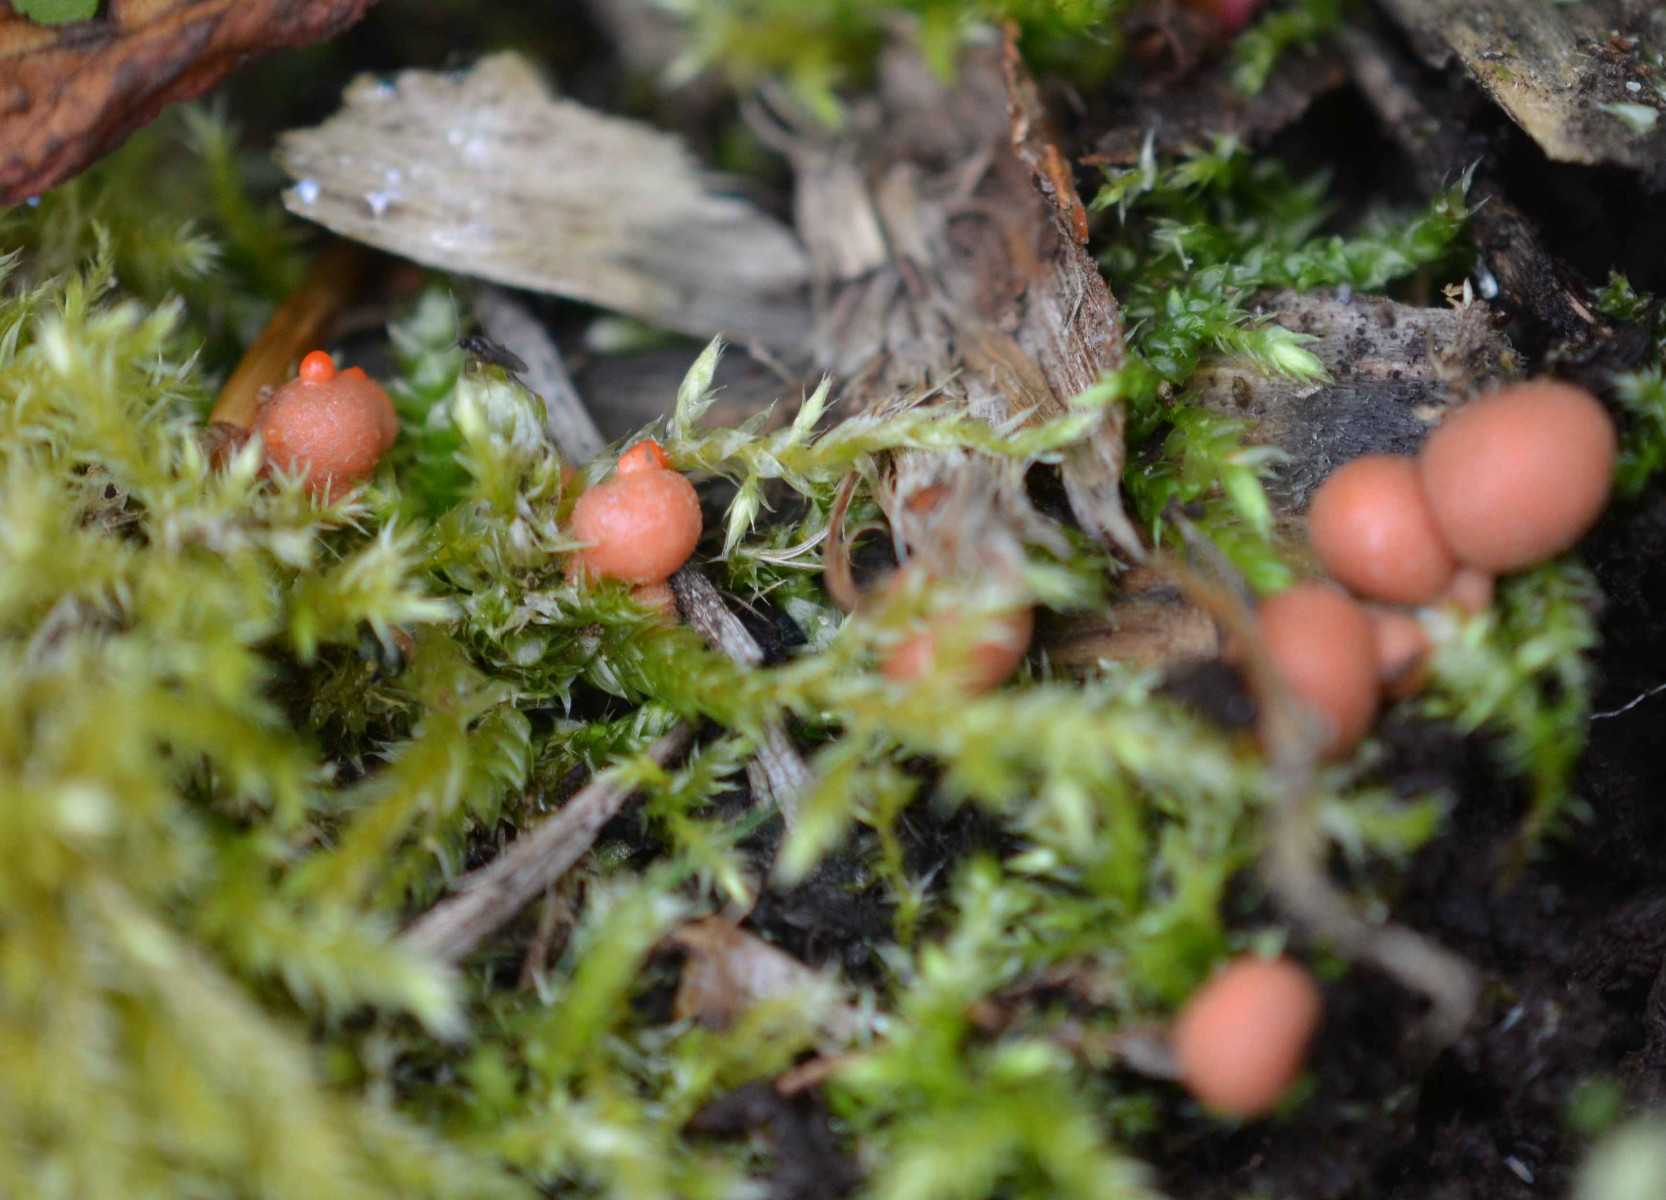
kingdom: Protozoa
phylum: Mycetozoa
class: Myxomycetes
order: Cribrariales
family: Tubiferaceae
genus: Lycogala
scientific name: Lycogala epidendrum
